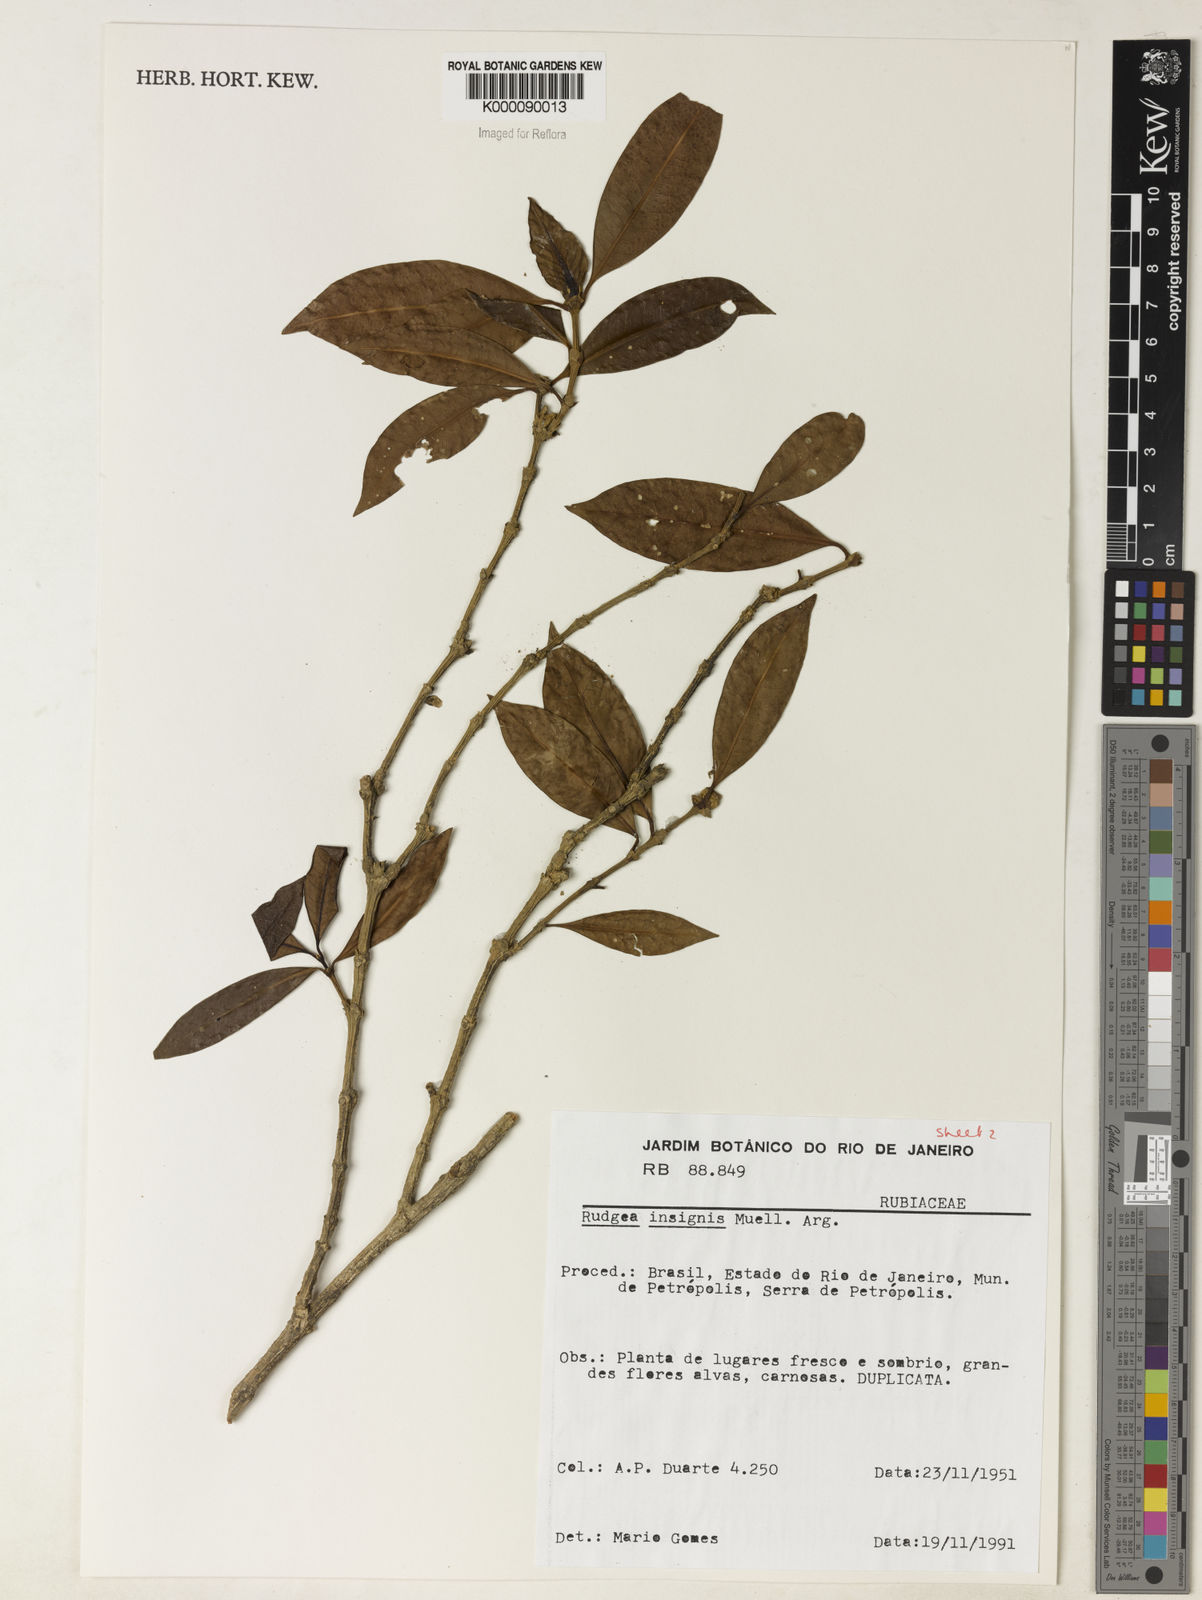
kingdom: Plantae
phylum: Tracheophyta
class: Magnoliopsida
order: Gentianales
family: Rubiaceae
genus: Rudgea
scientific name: Rudgea insignis
